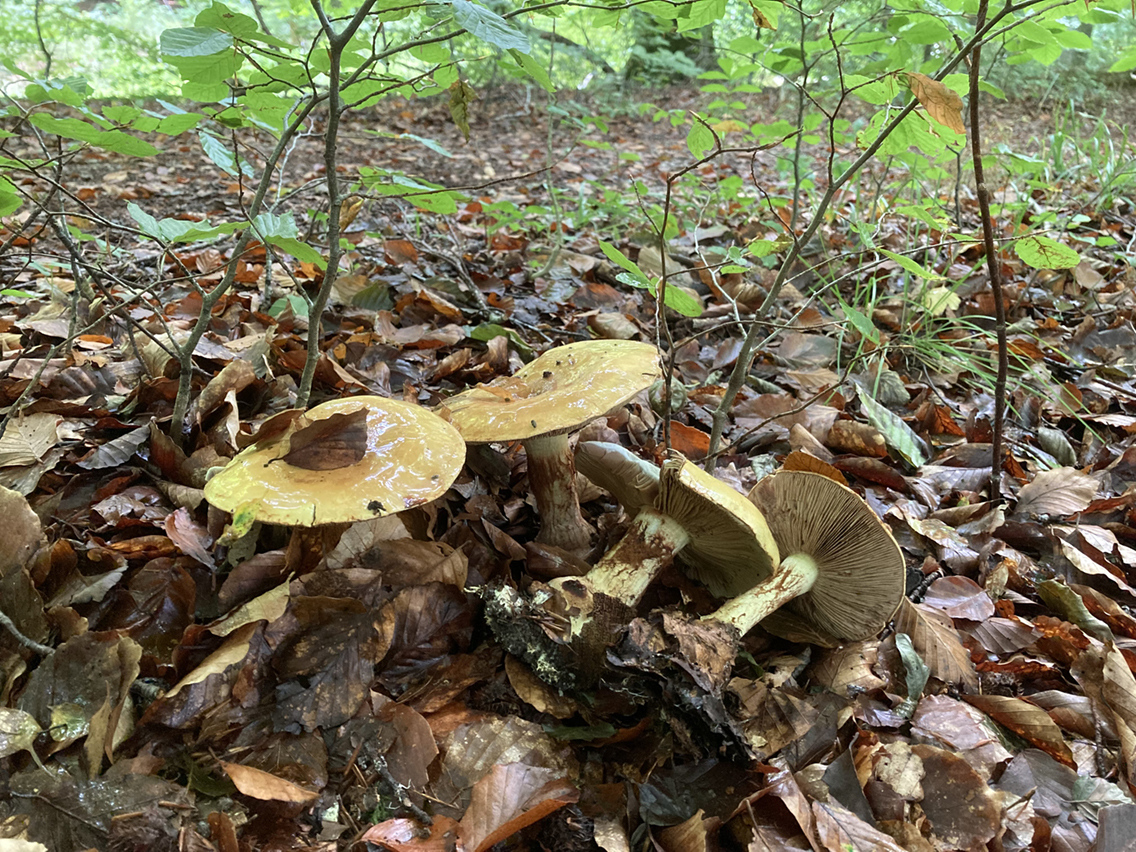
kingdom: Fungi
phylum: Basidiomycota
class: Agaricomycetes
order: Agaricales
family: Cortinariaceae
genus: Calonarius
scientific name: Calonarius elegantissimus
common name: orangegylden slørhat
